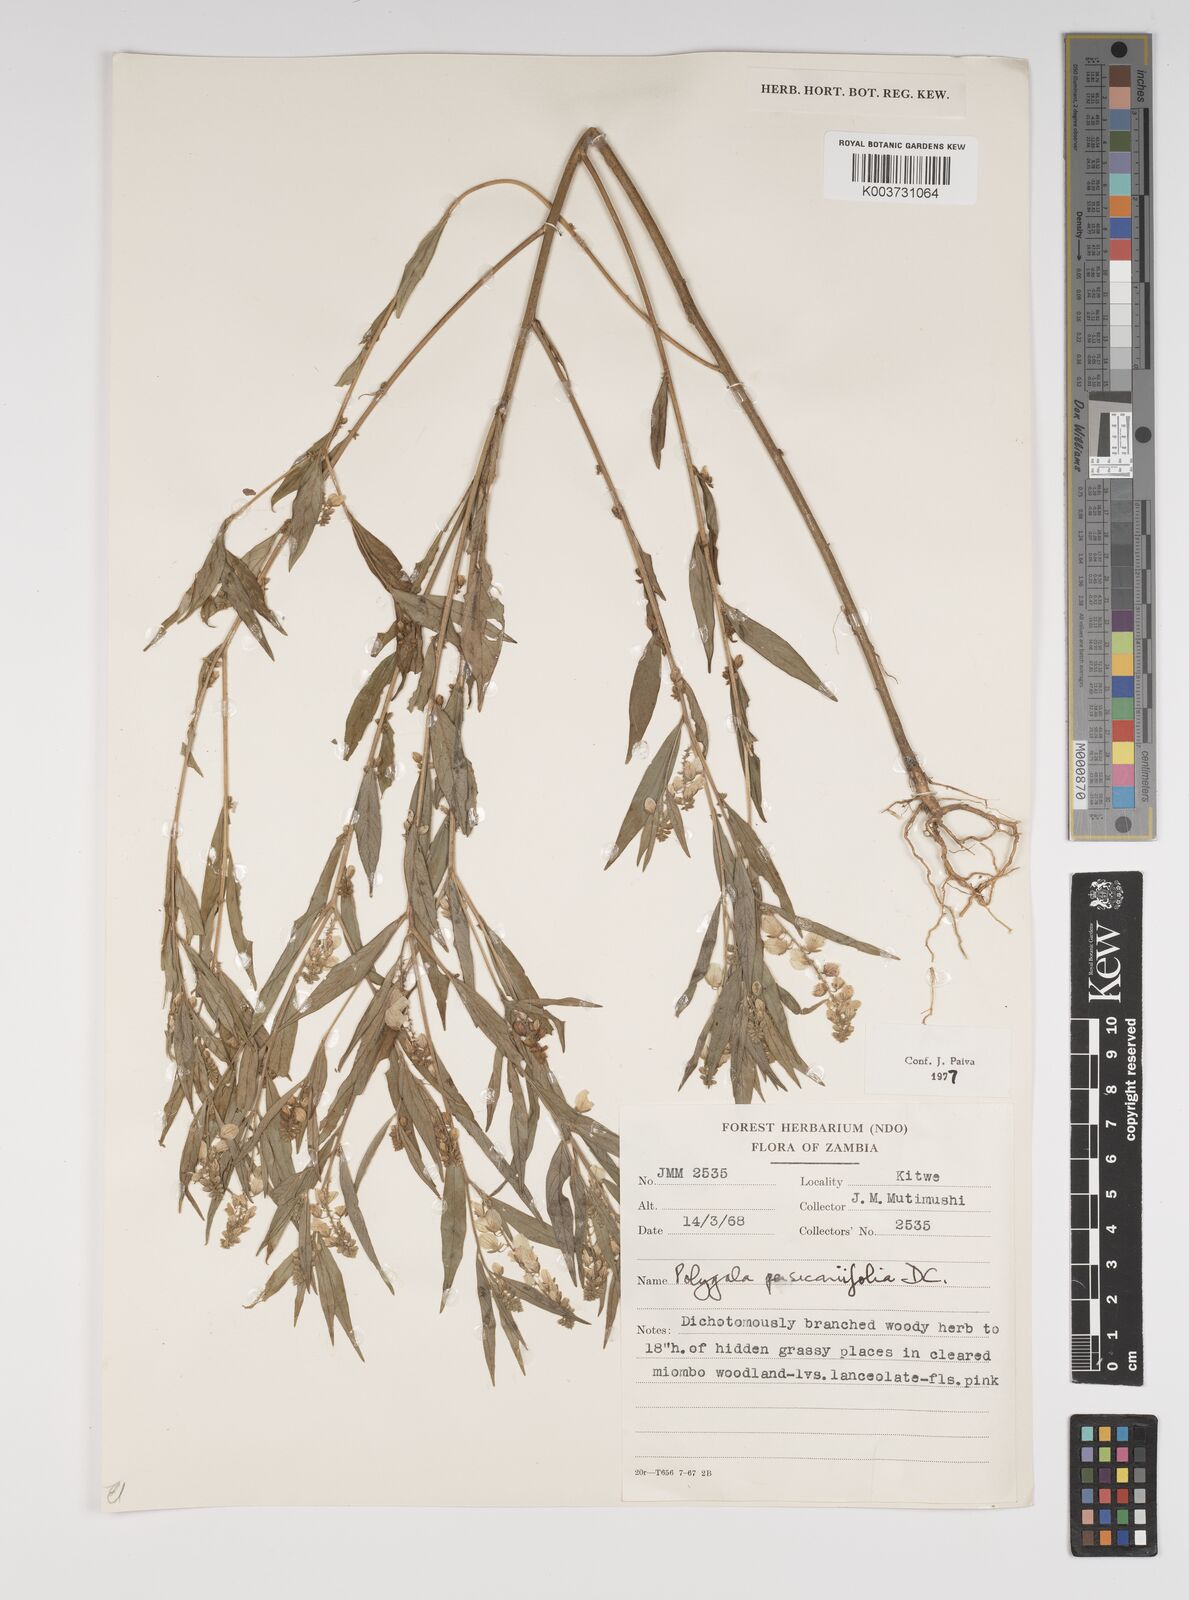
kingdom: Plantae
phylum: Tracheophyta
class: Magnoliopsida
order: Fabales
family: Polygalaceae
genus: Polygala
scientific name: Polygala persicariifolia
